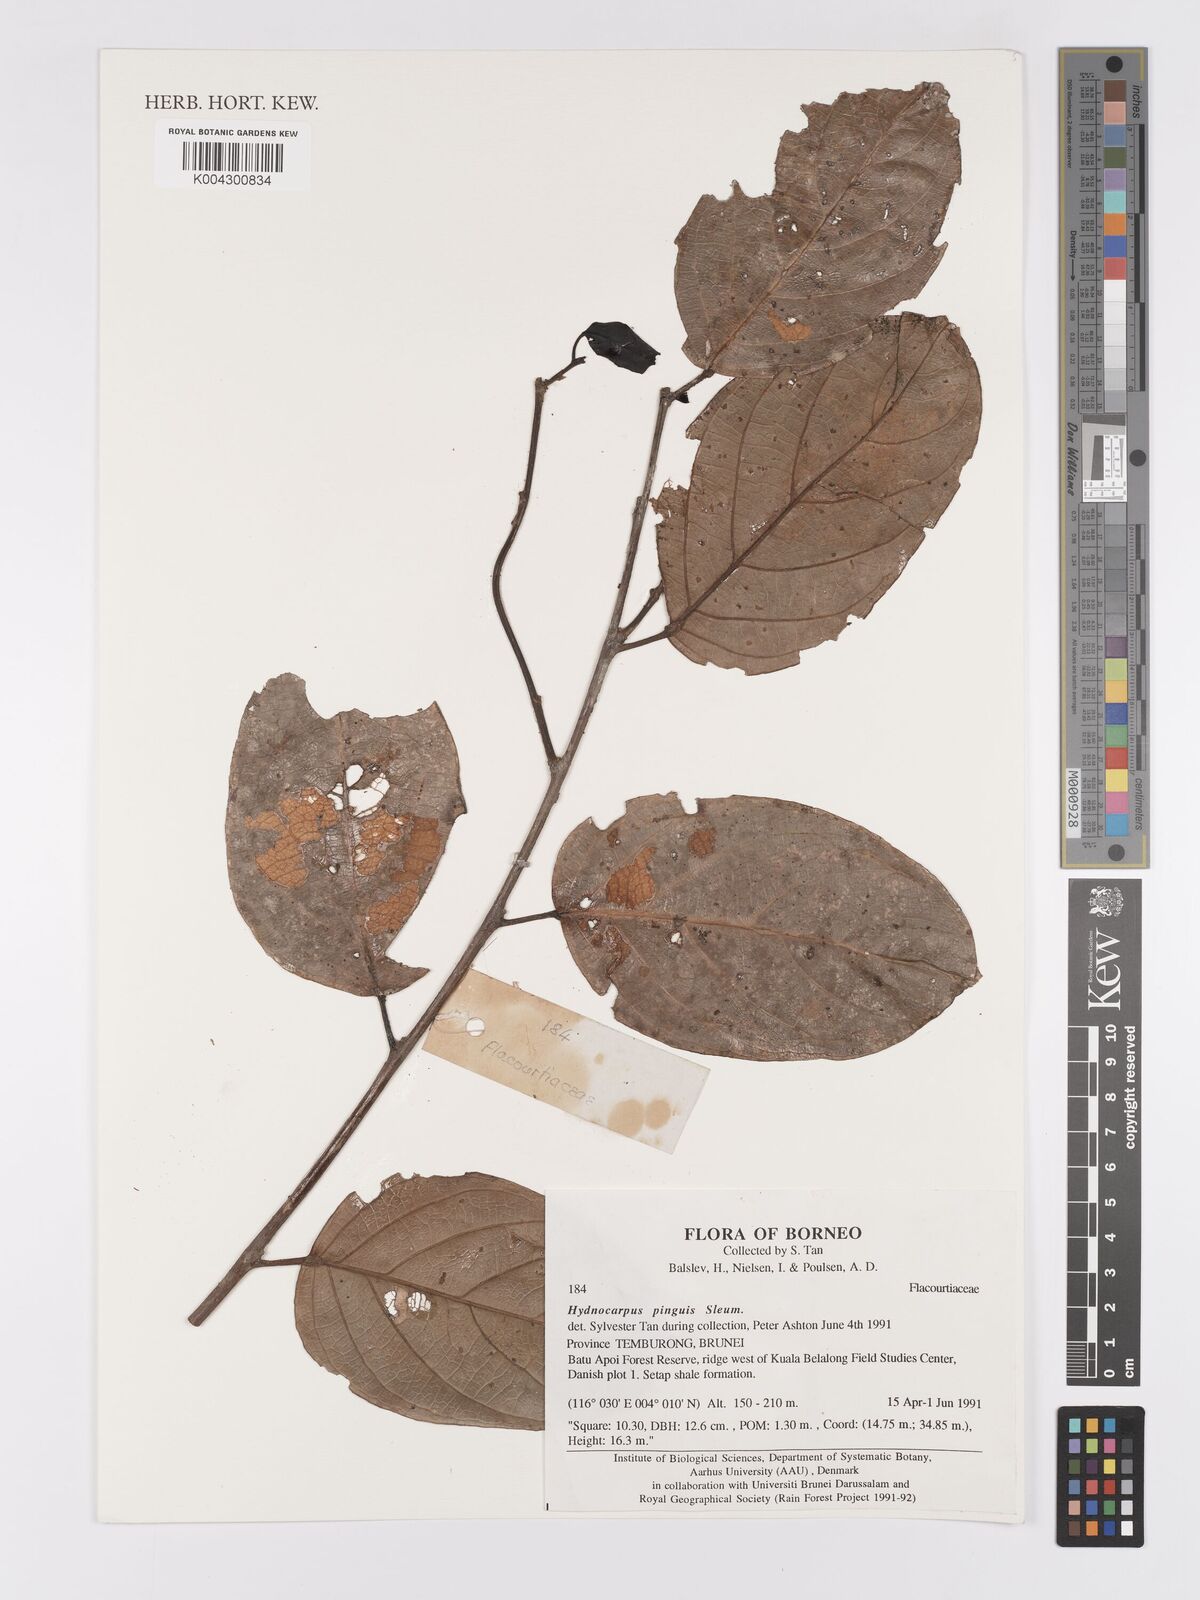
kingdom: Plantae
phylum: Tracheophyta
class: Magnoliopsida
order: Malpighiales
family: Achariaceae
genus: Hydnocarpus
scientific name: Hydnocarpus pinguis
